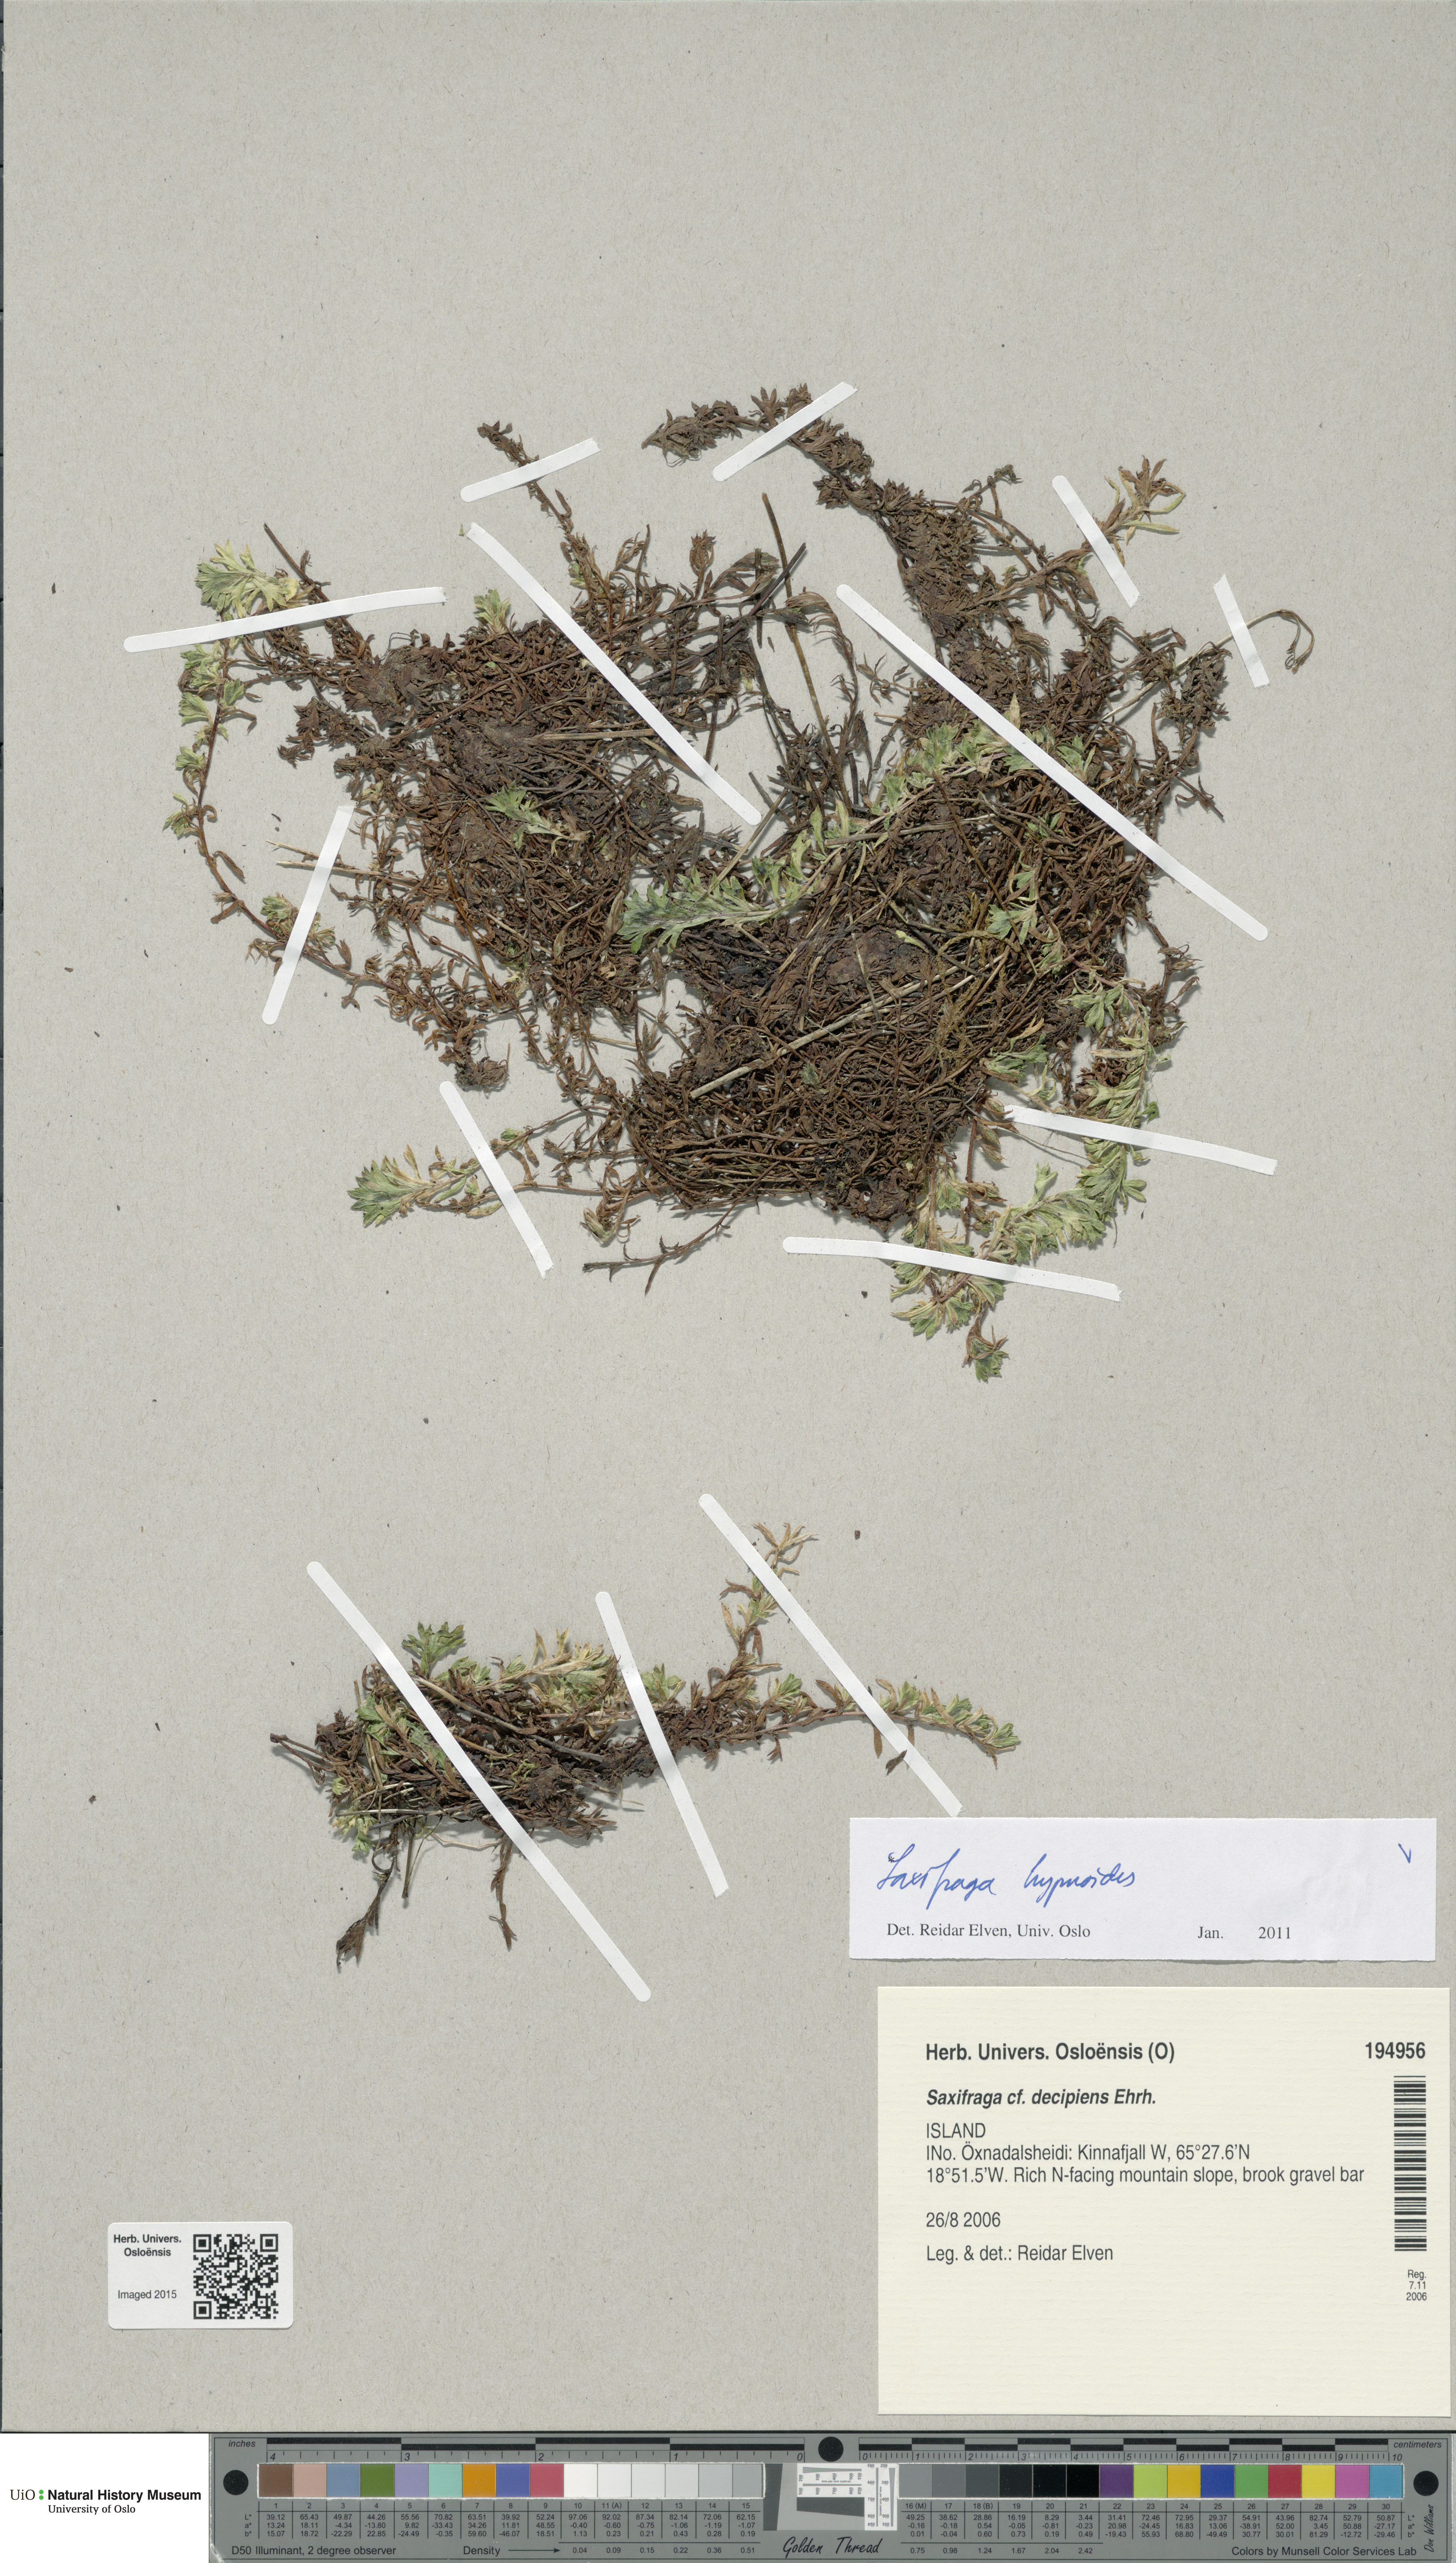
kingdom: Plantae
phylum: Tracheophyta
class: Magnoliopsida
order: Saxifragales
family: Saxifragaceae
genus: Saxifraga
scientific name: Saxifraga hypnoides
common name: Mossy saxifrage
